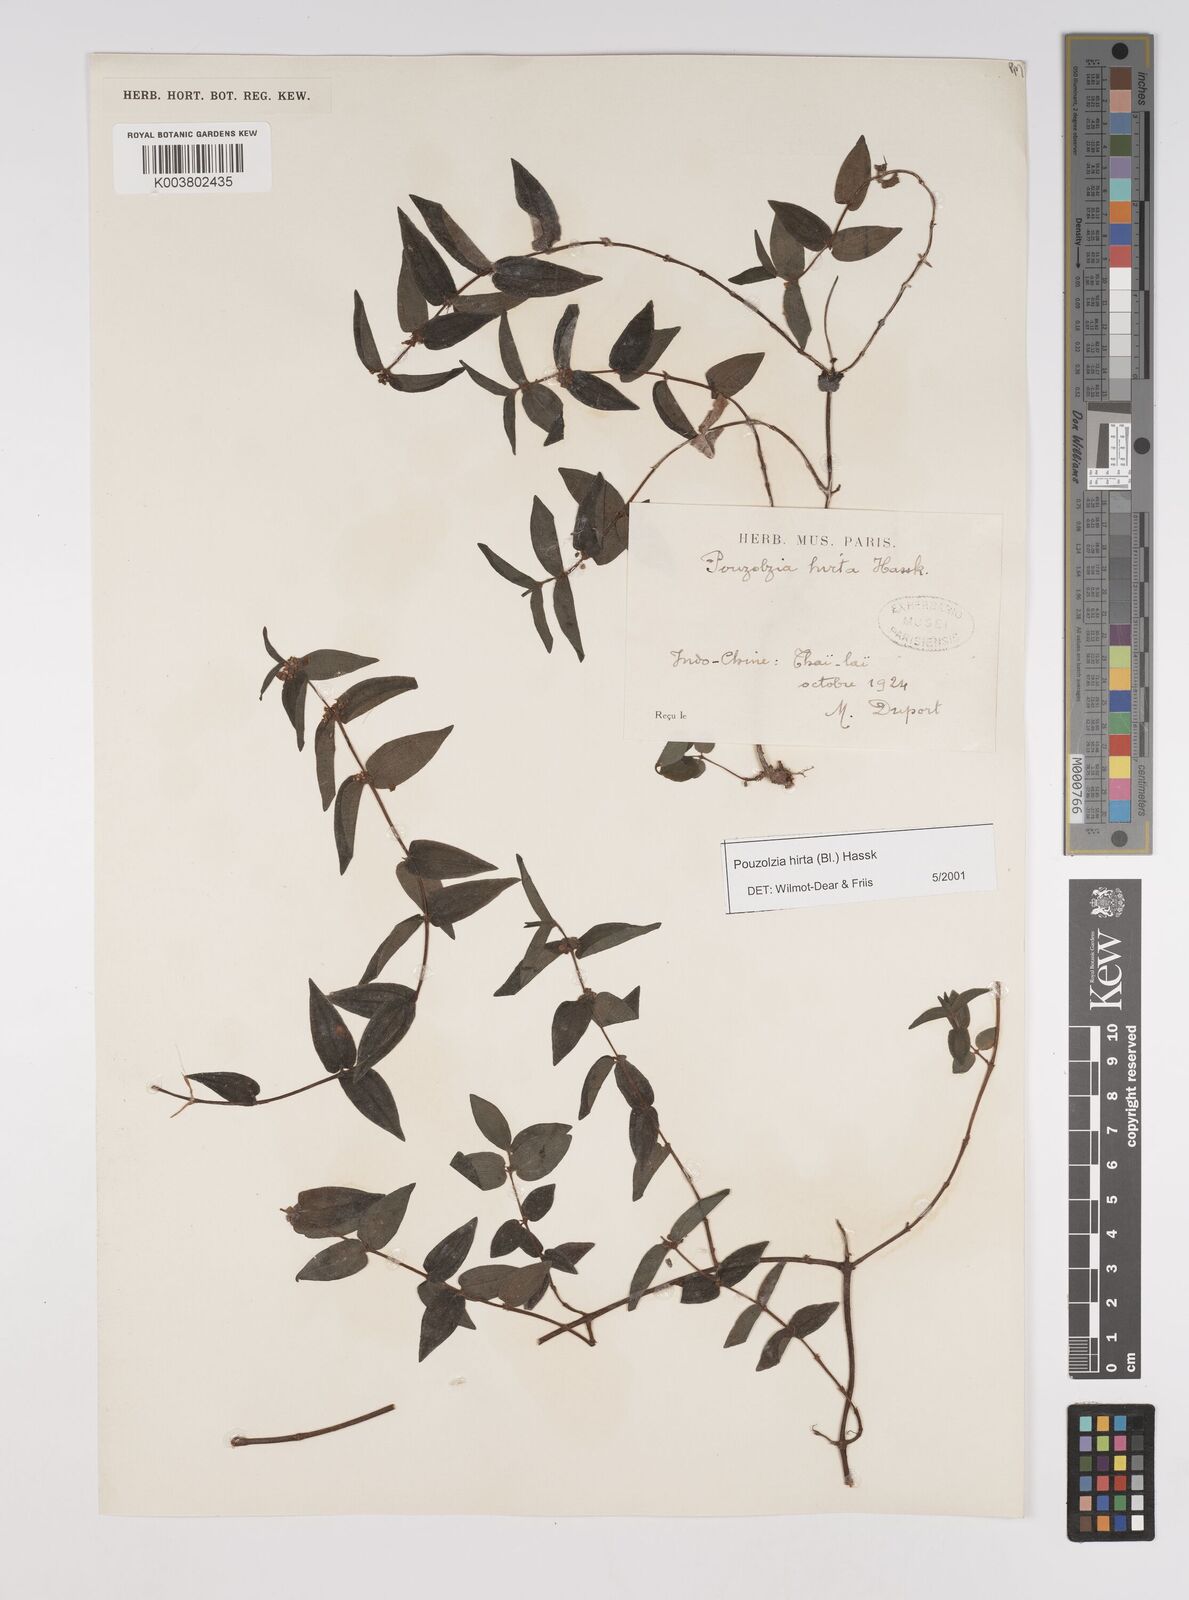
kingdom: Plantae
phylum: Tracheophyta
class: Magnoliopsida
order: Rosales
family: Urticaceae
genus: Gonostegia
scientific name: Gonostegia triandra
